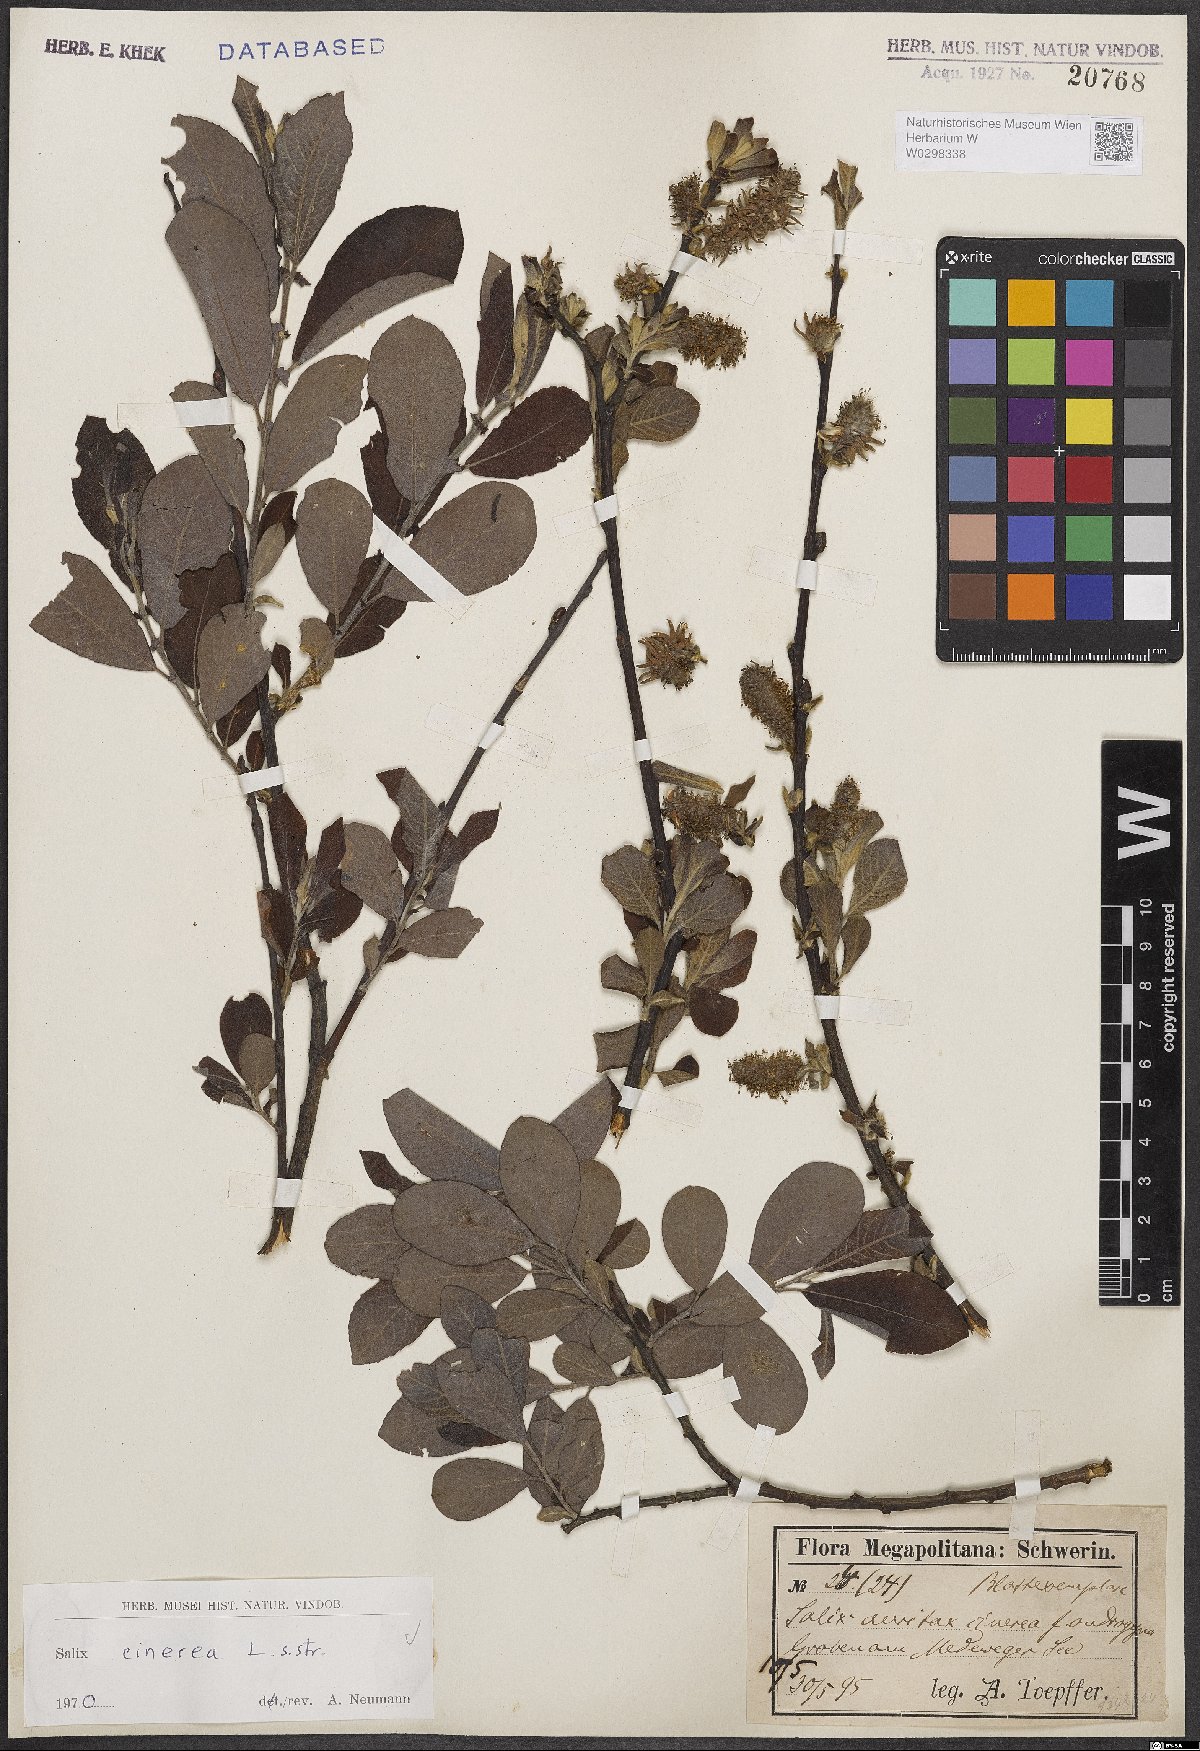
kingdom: Plantae
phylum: Tracheophyta
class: Magnoliopsida
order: Malpighiales
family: Salicaceae
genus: Salix
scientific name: Salix cinerea
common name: Common sallow
